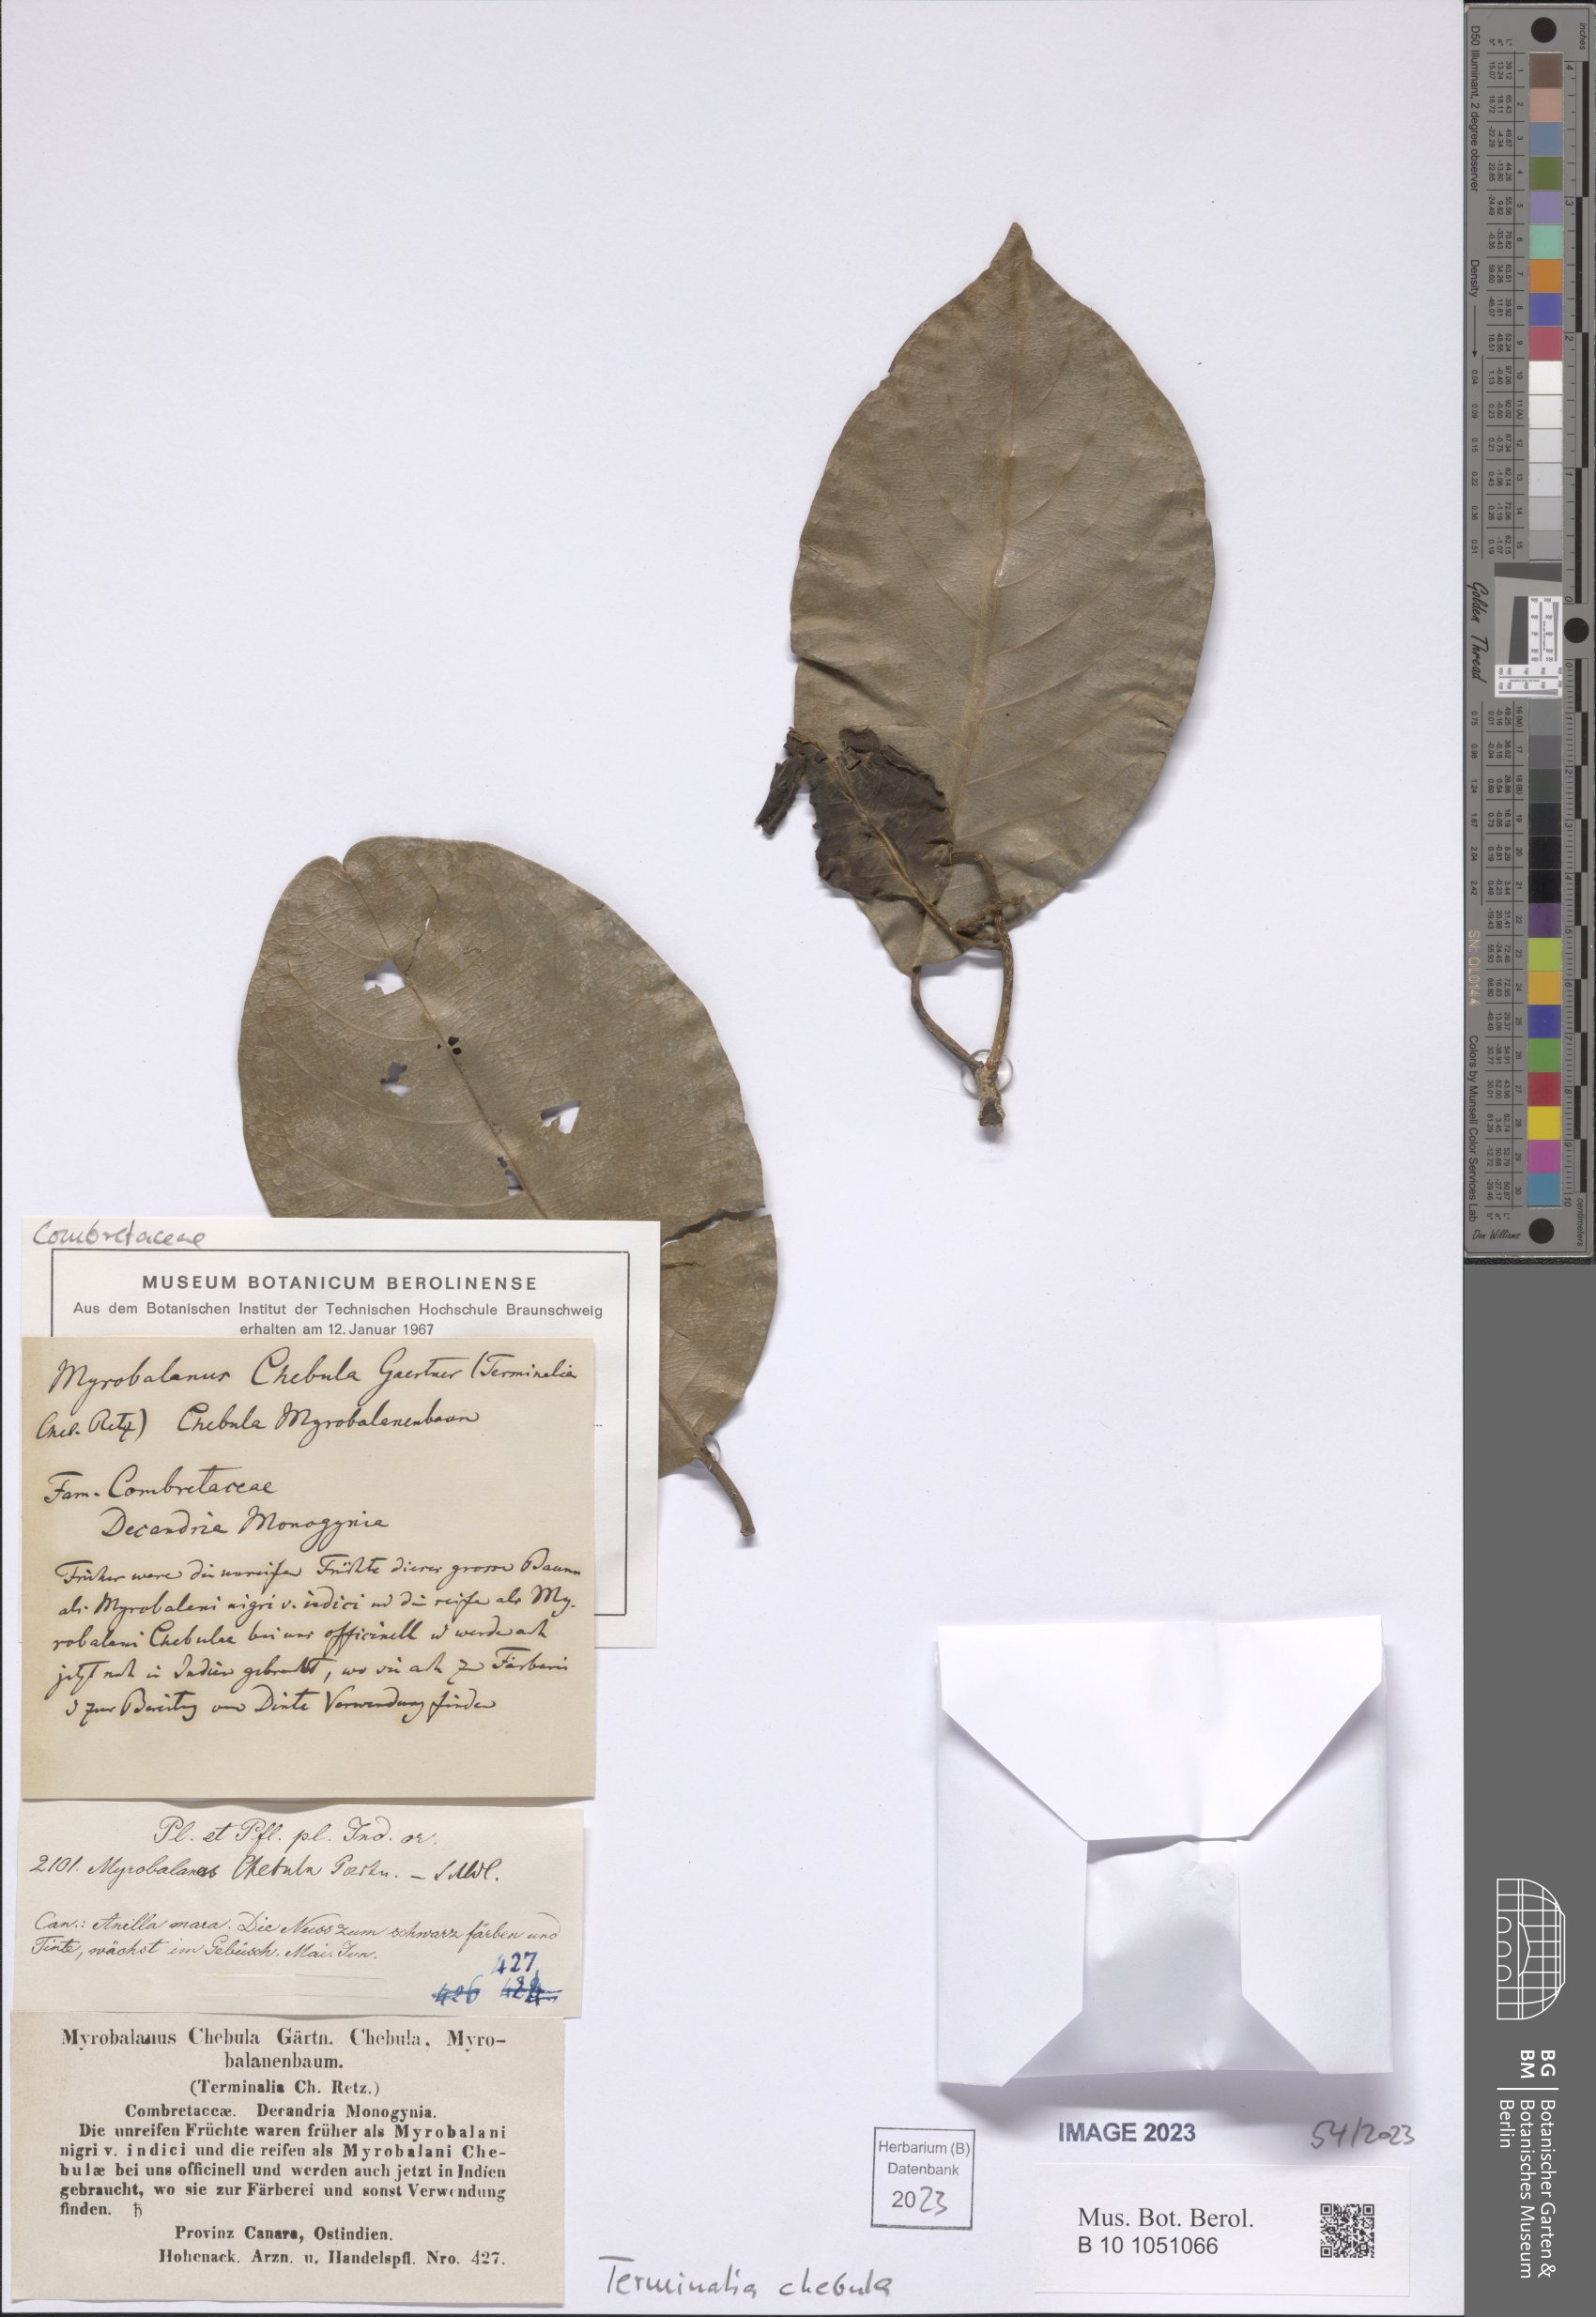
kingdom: Plantae
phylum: Tracheophyta
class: Magnoliopsida
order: Myrtales
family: Combretaceae
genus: Terminalia
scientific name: Terminalia chebula
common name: Myrobalan
